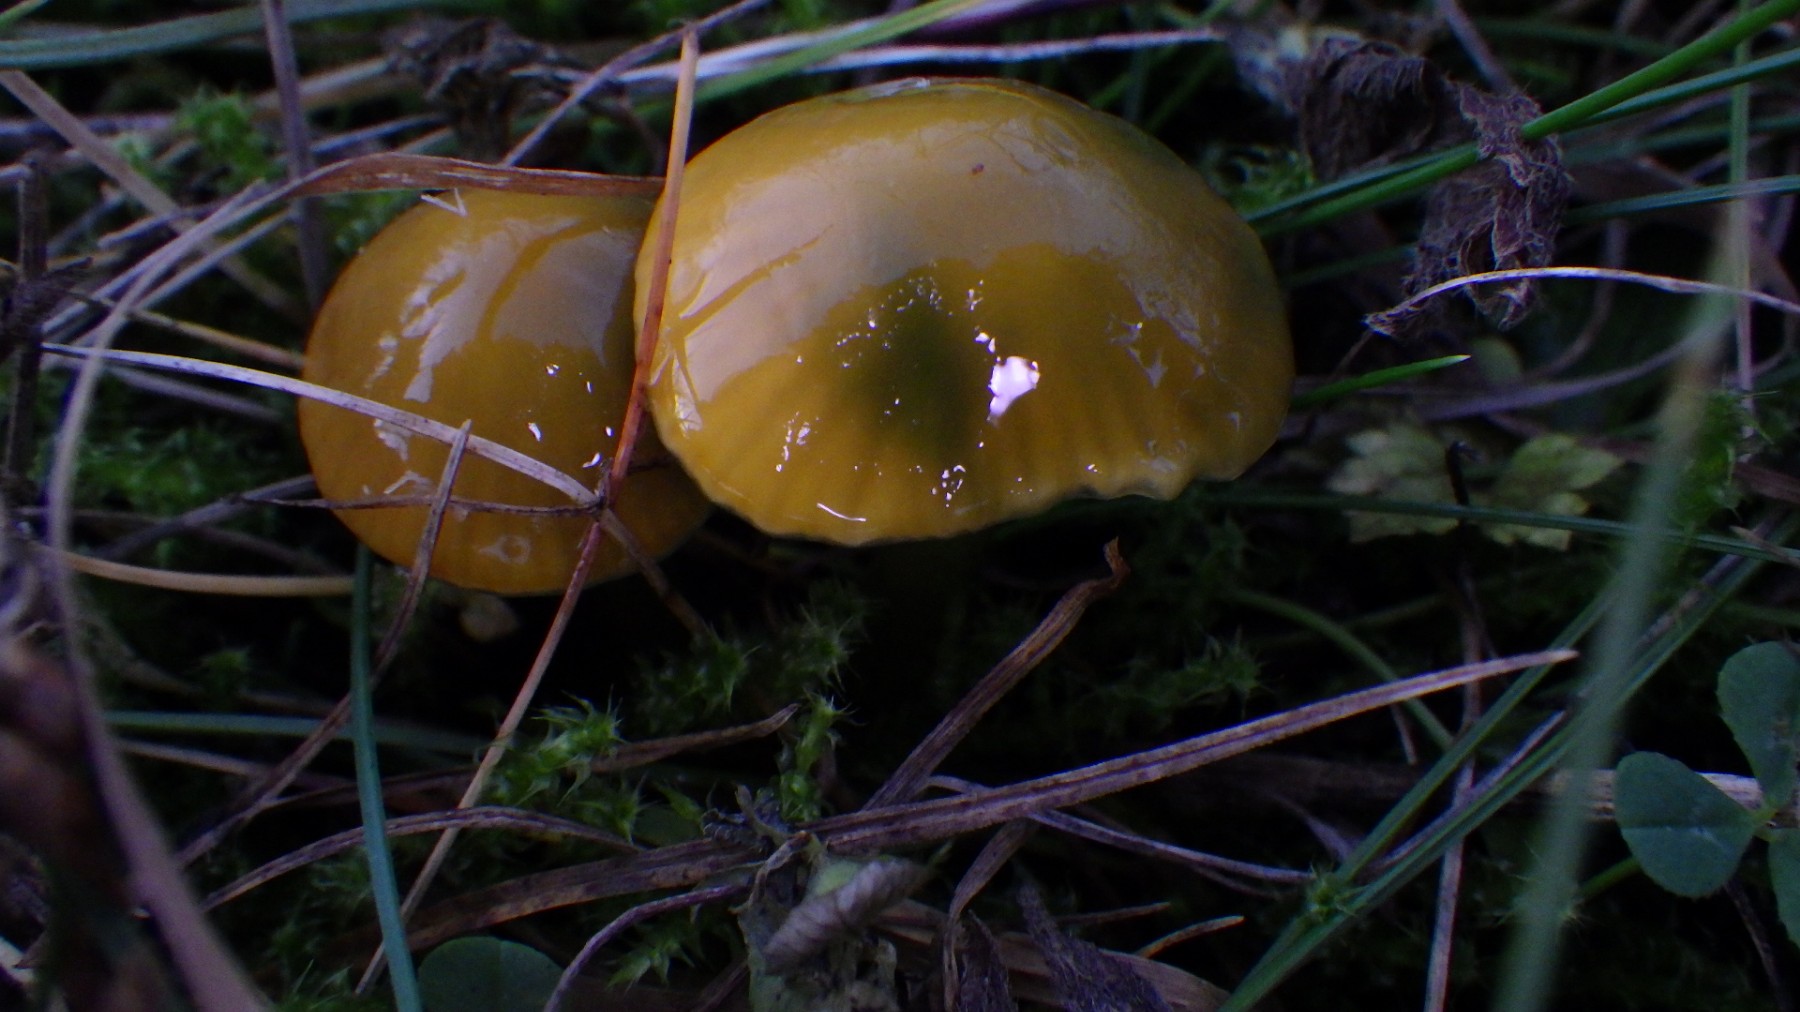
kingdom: Fungi
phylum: Basidiomycota
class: Agaricomycetes
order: Agaricales
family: Hygrophoraceae
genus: Gliophorus
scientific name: Gliophorus psittacinus
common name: papegøje-vokshat
